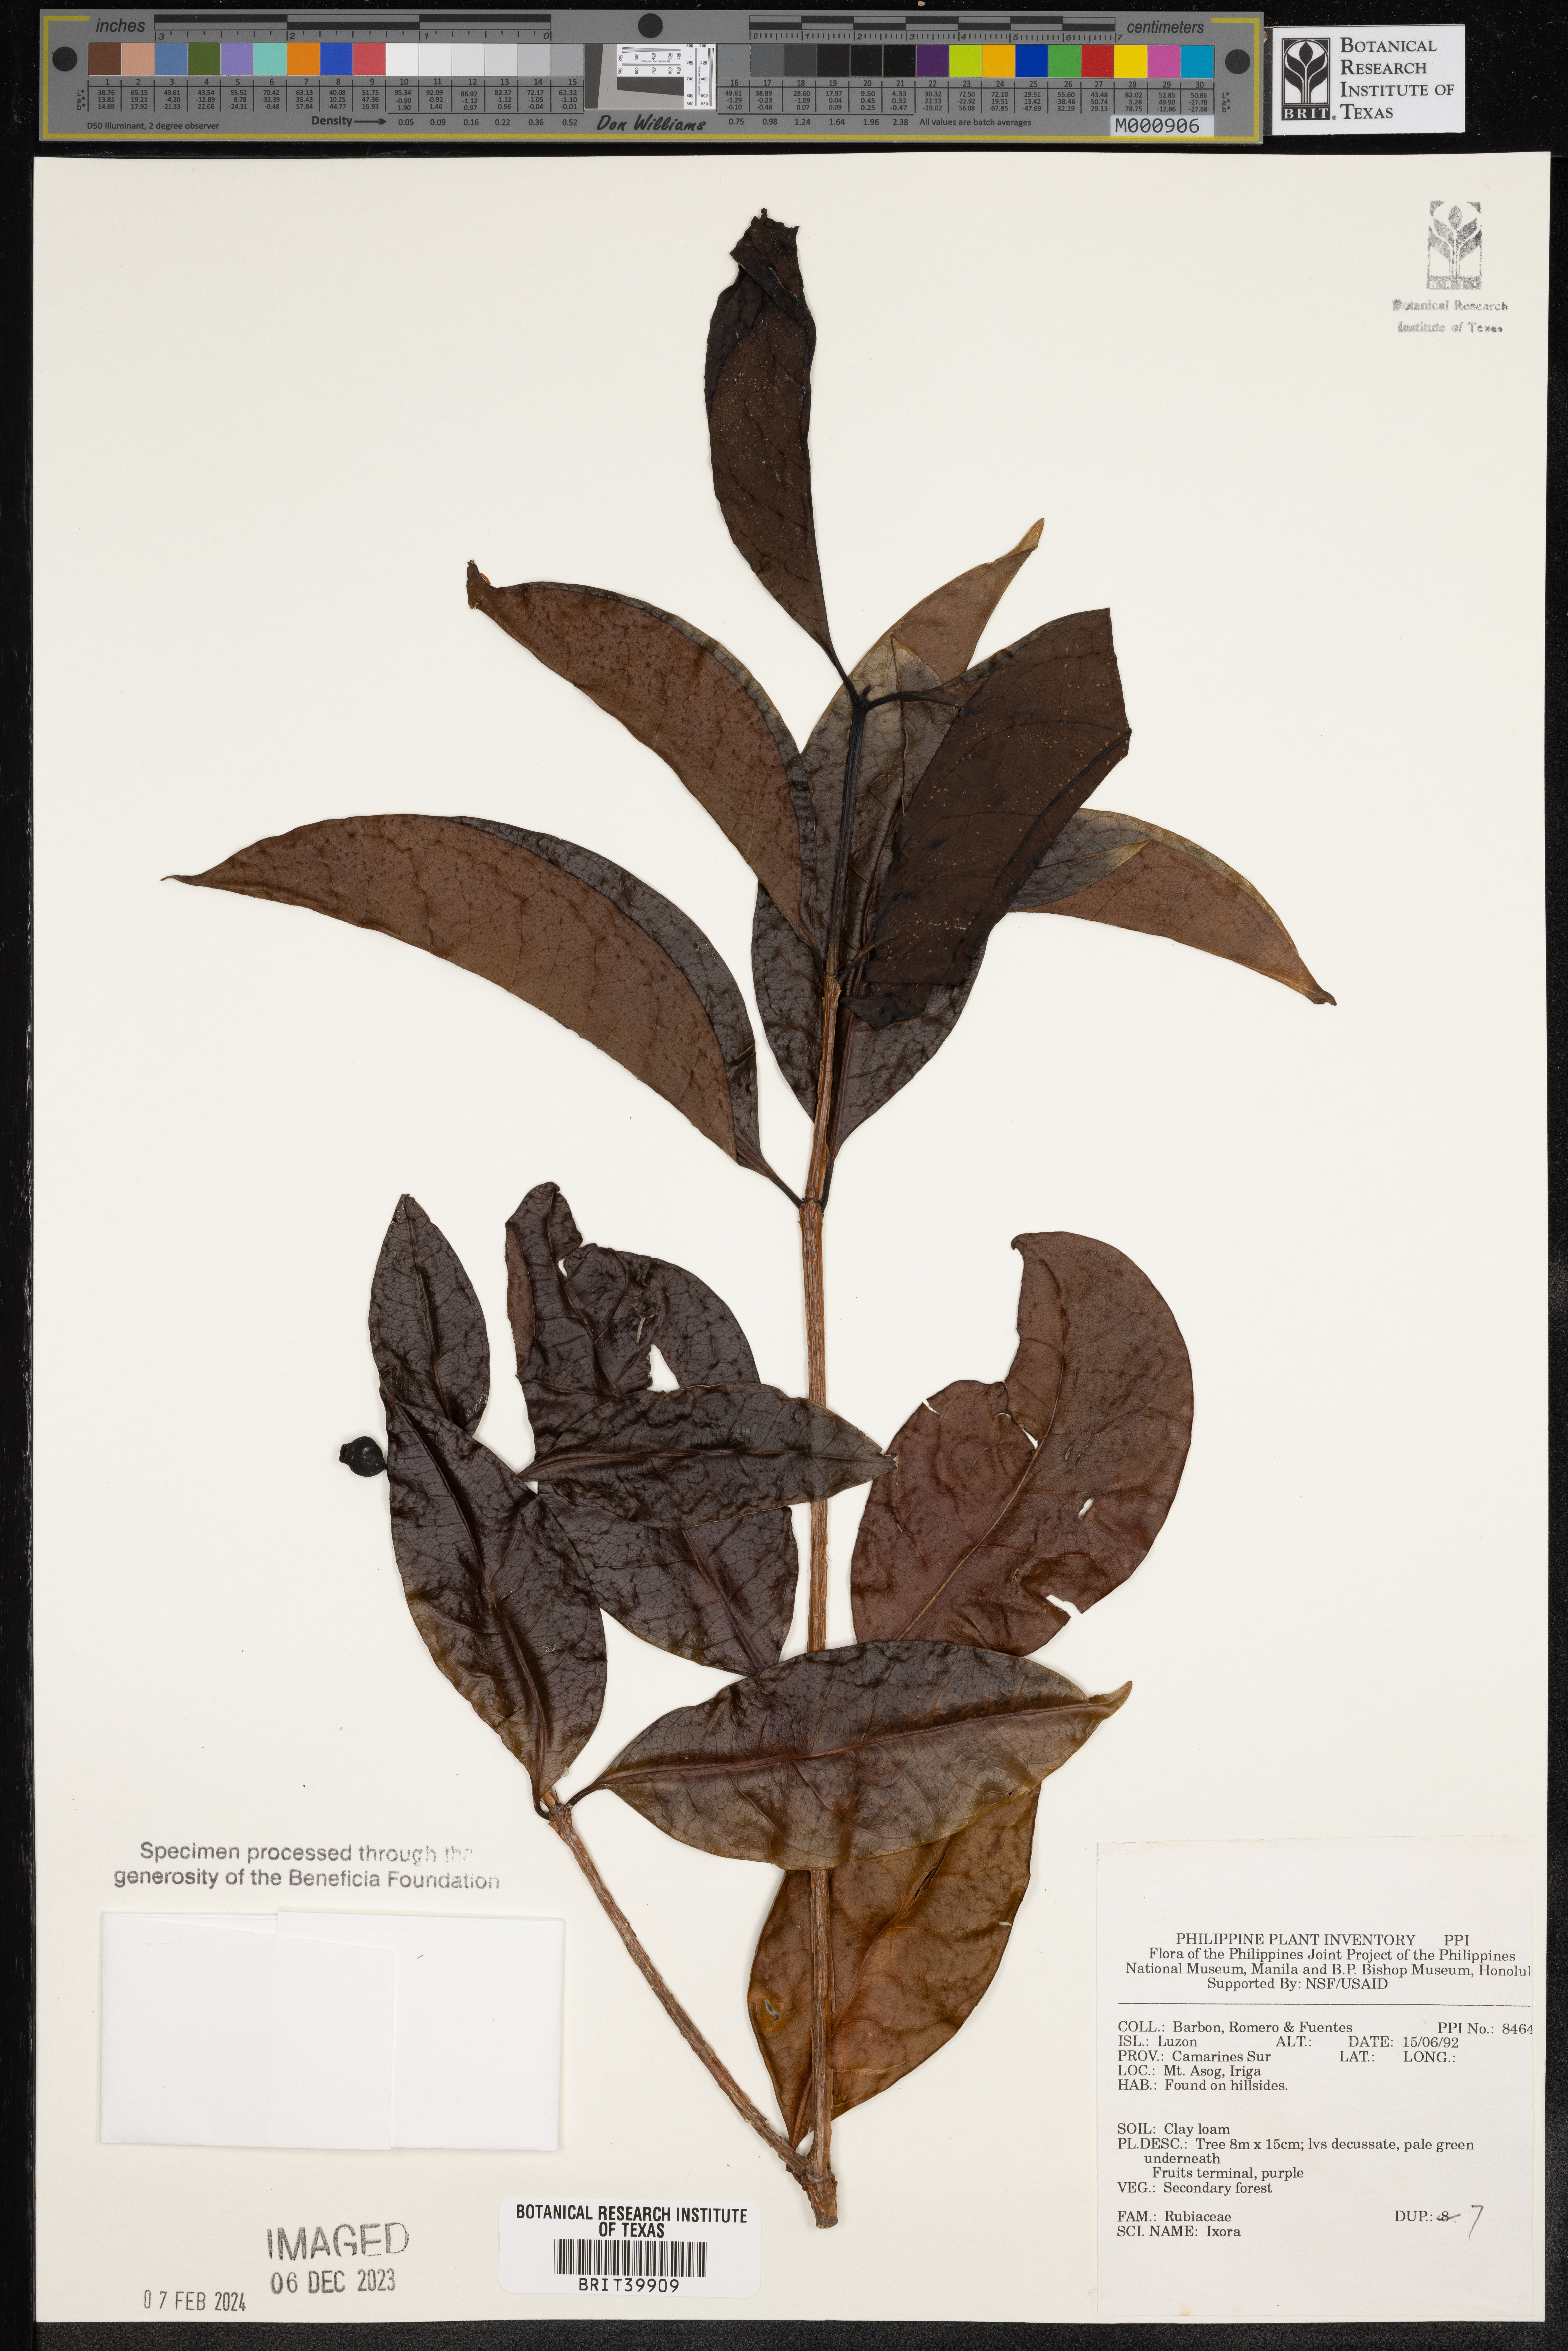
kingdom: Plantae
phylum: Tracheophyta
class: Magnoliopsida
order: Gentianales
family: Rubiaceae
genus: Ixora
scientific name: Ixora
